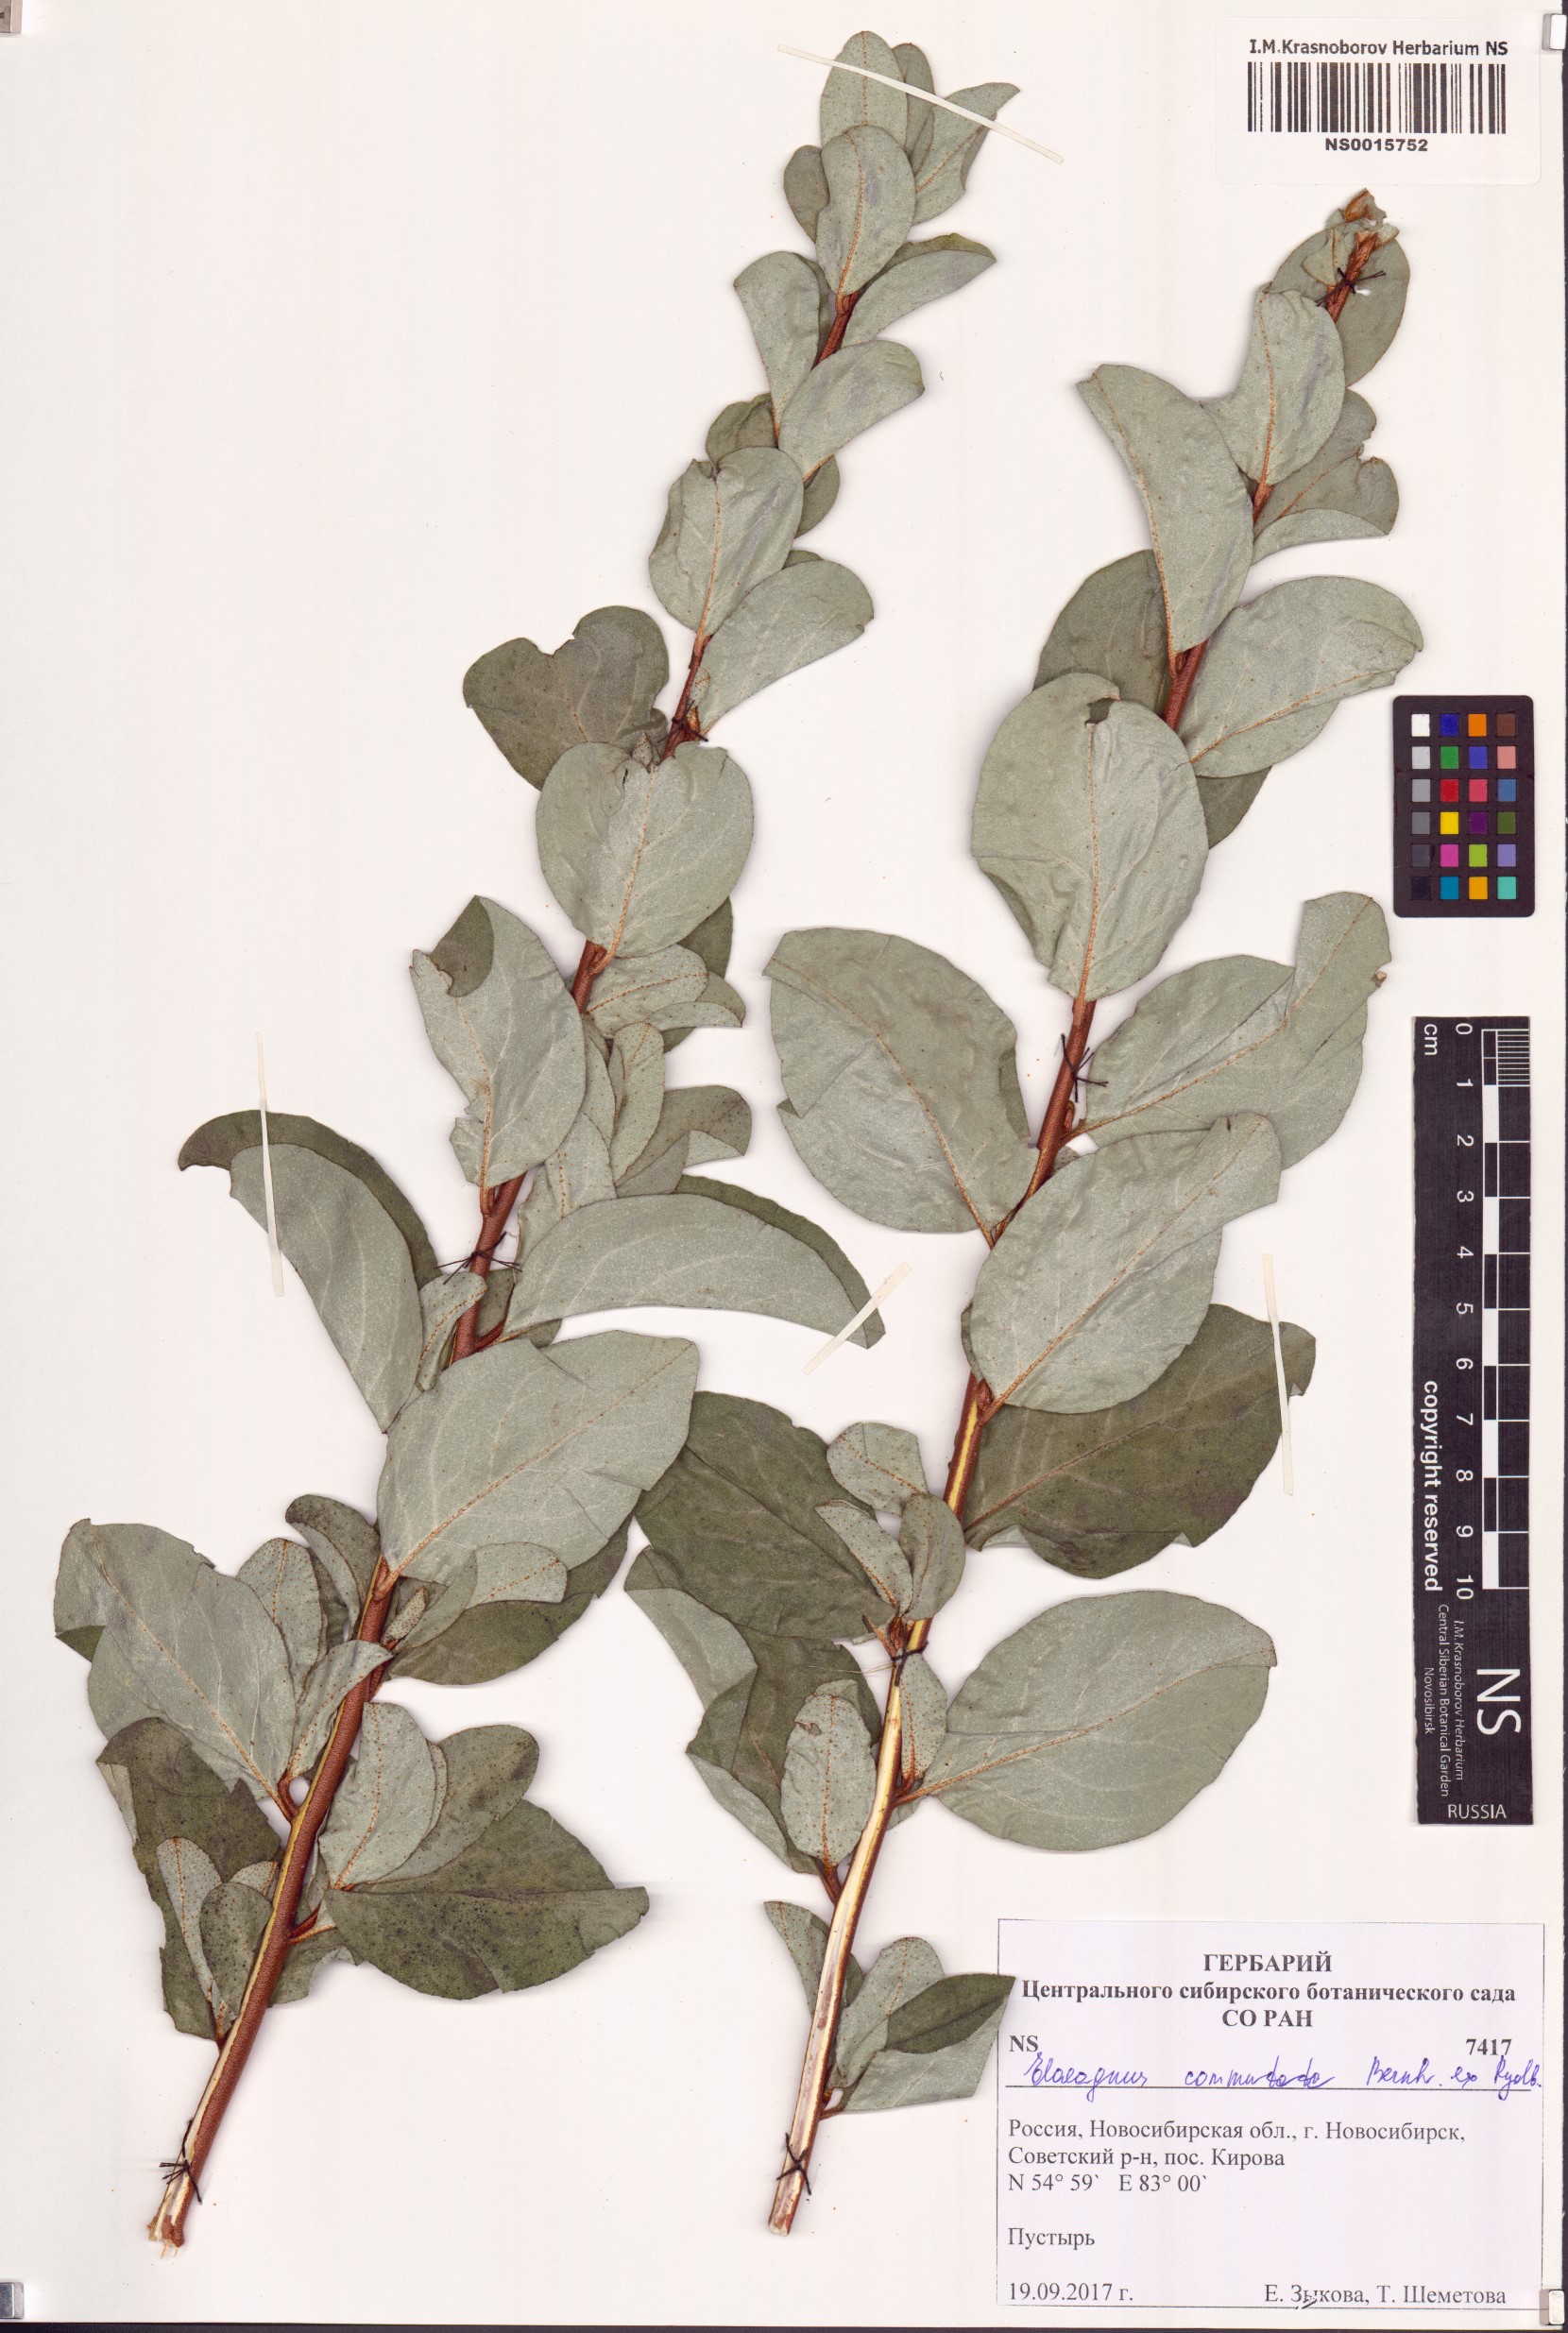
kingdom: Plantae
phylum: Tracheophyta
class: Magnoliopsida
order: Rosales
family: Elaeagnaceae
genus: Elaeagnus
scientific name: Elaeagnus commutata
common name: Silverberry
